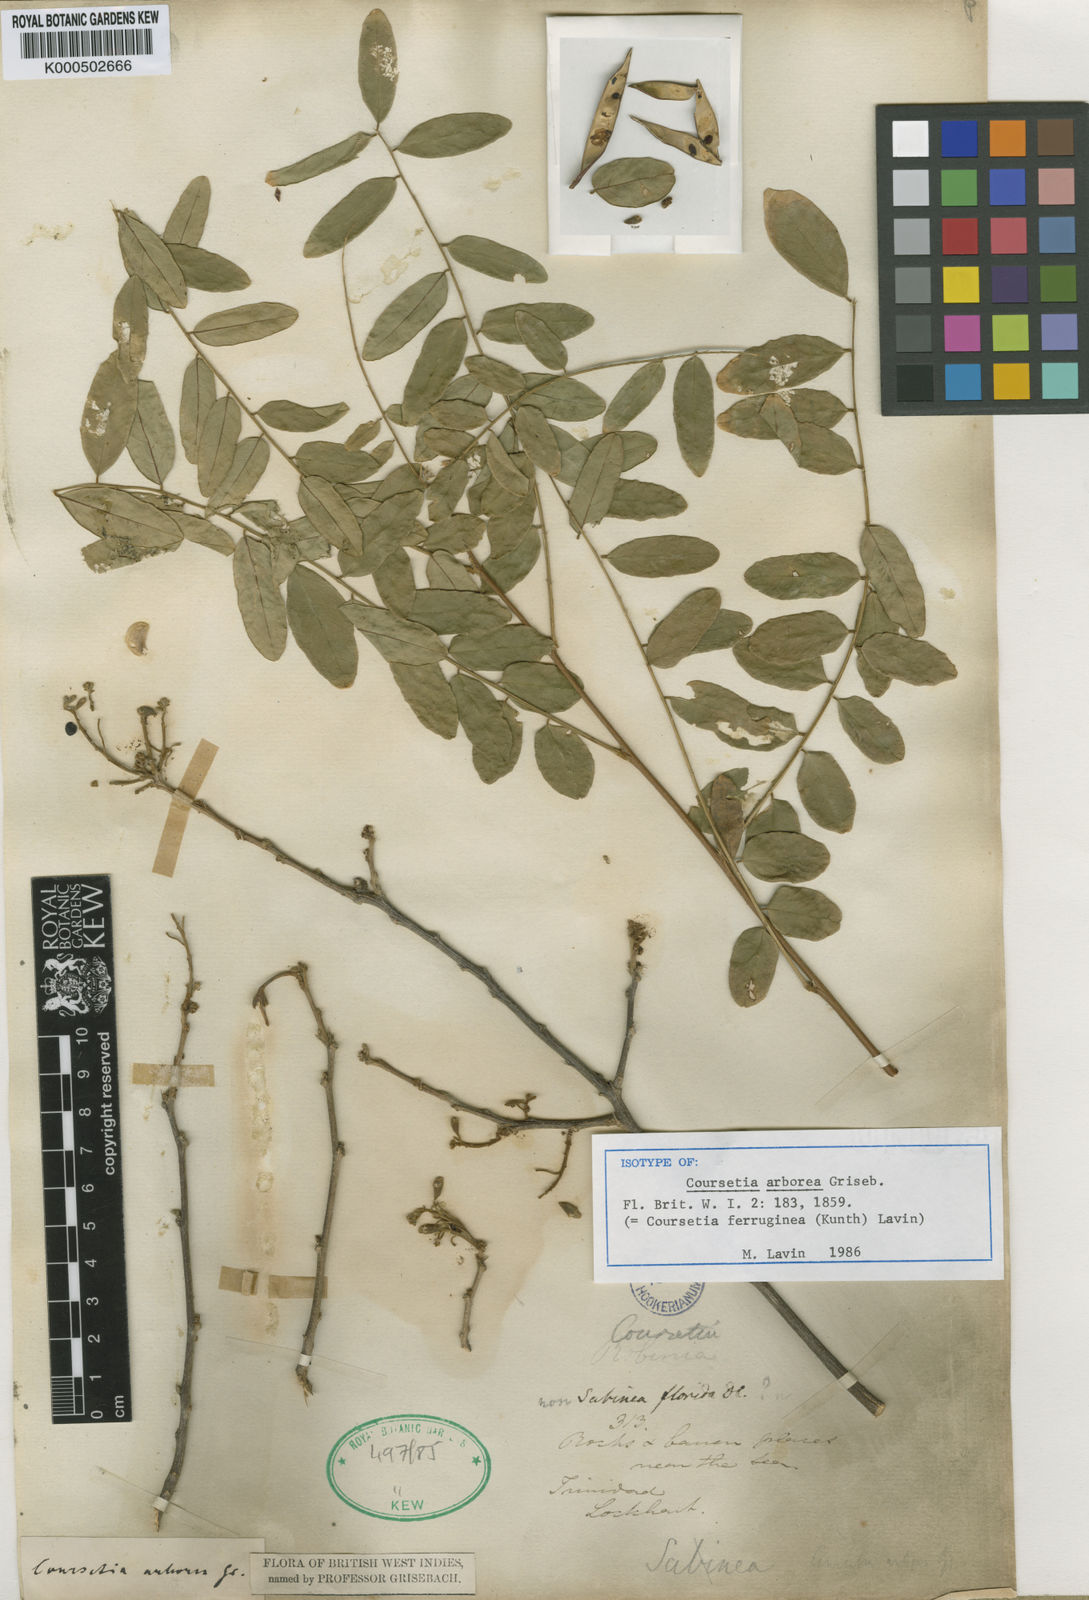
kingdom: Plantae
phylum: Tracheophyta
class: Magnoliopsida
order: Fabales
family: Fabaceae
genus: Coursetia
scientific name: Coursetia ferruginea
